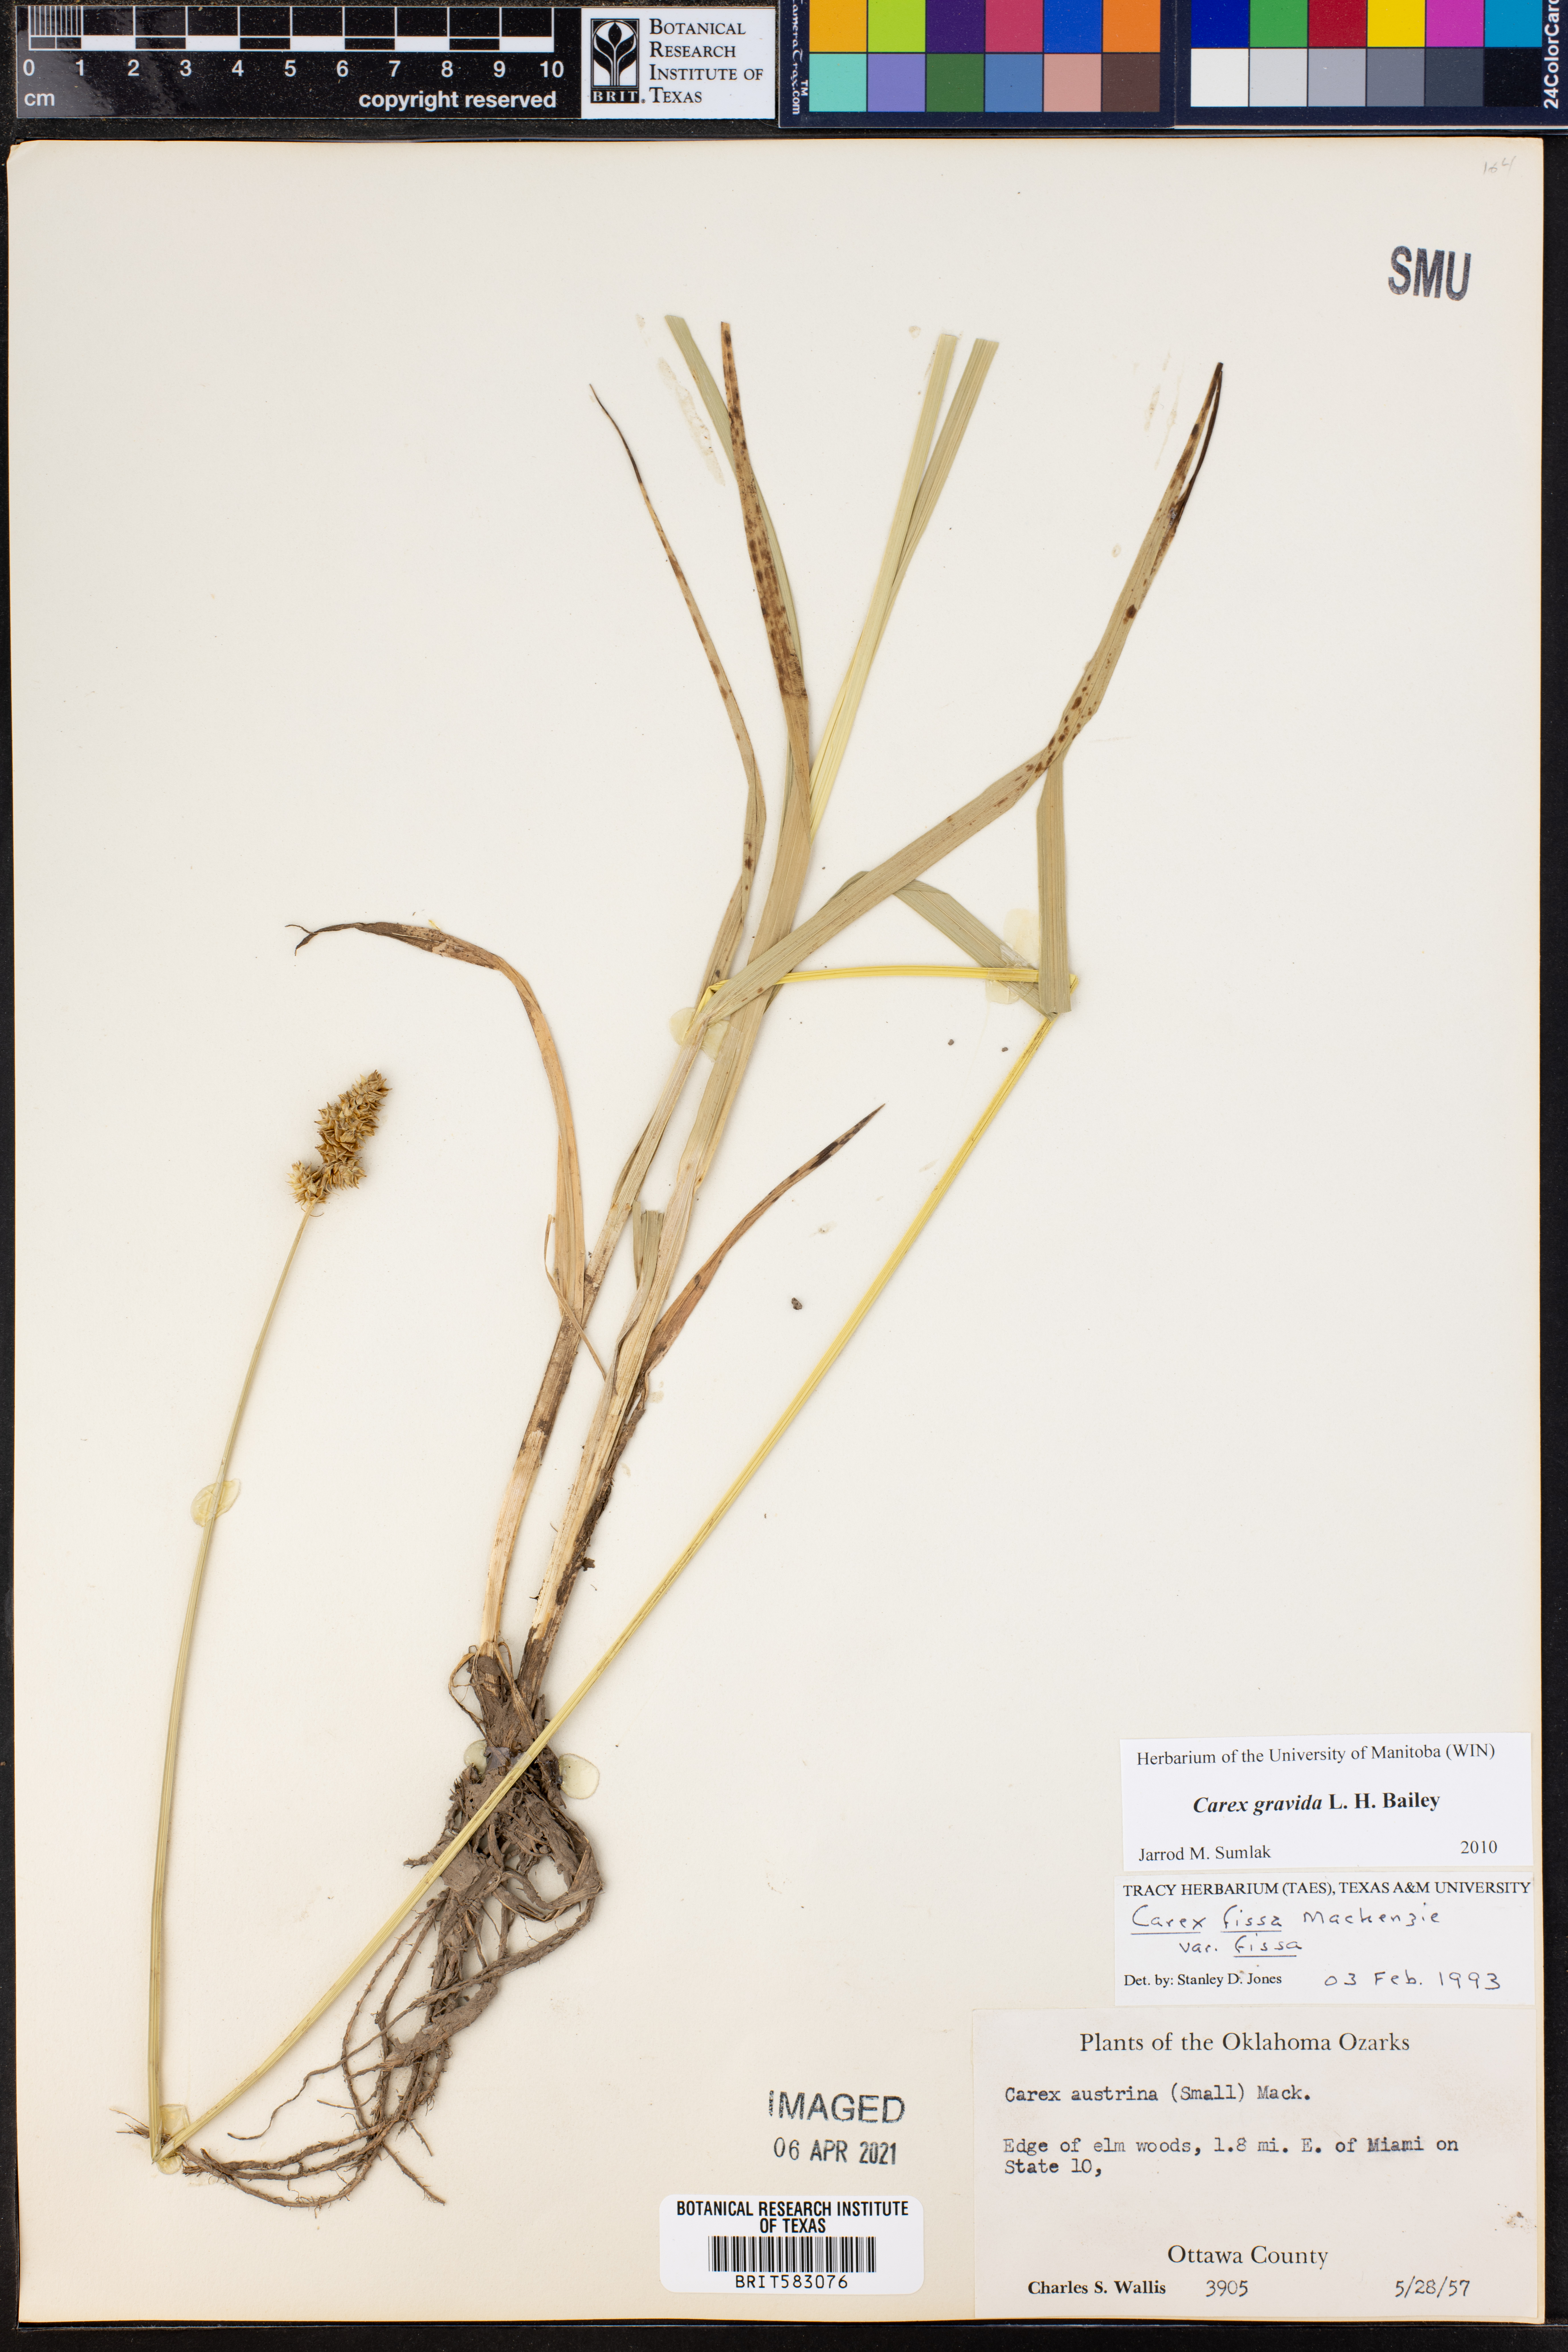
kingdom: Plantae
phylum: Tracheophyta
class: Liliopsida
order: Poales
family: Cyperaceae
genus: Carex
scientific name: Carex gravida
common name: Heavy sedge
